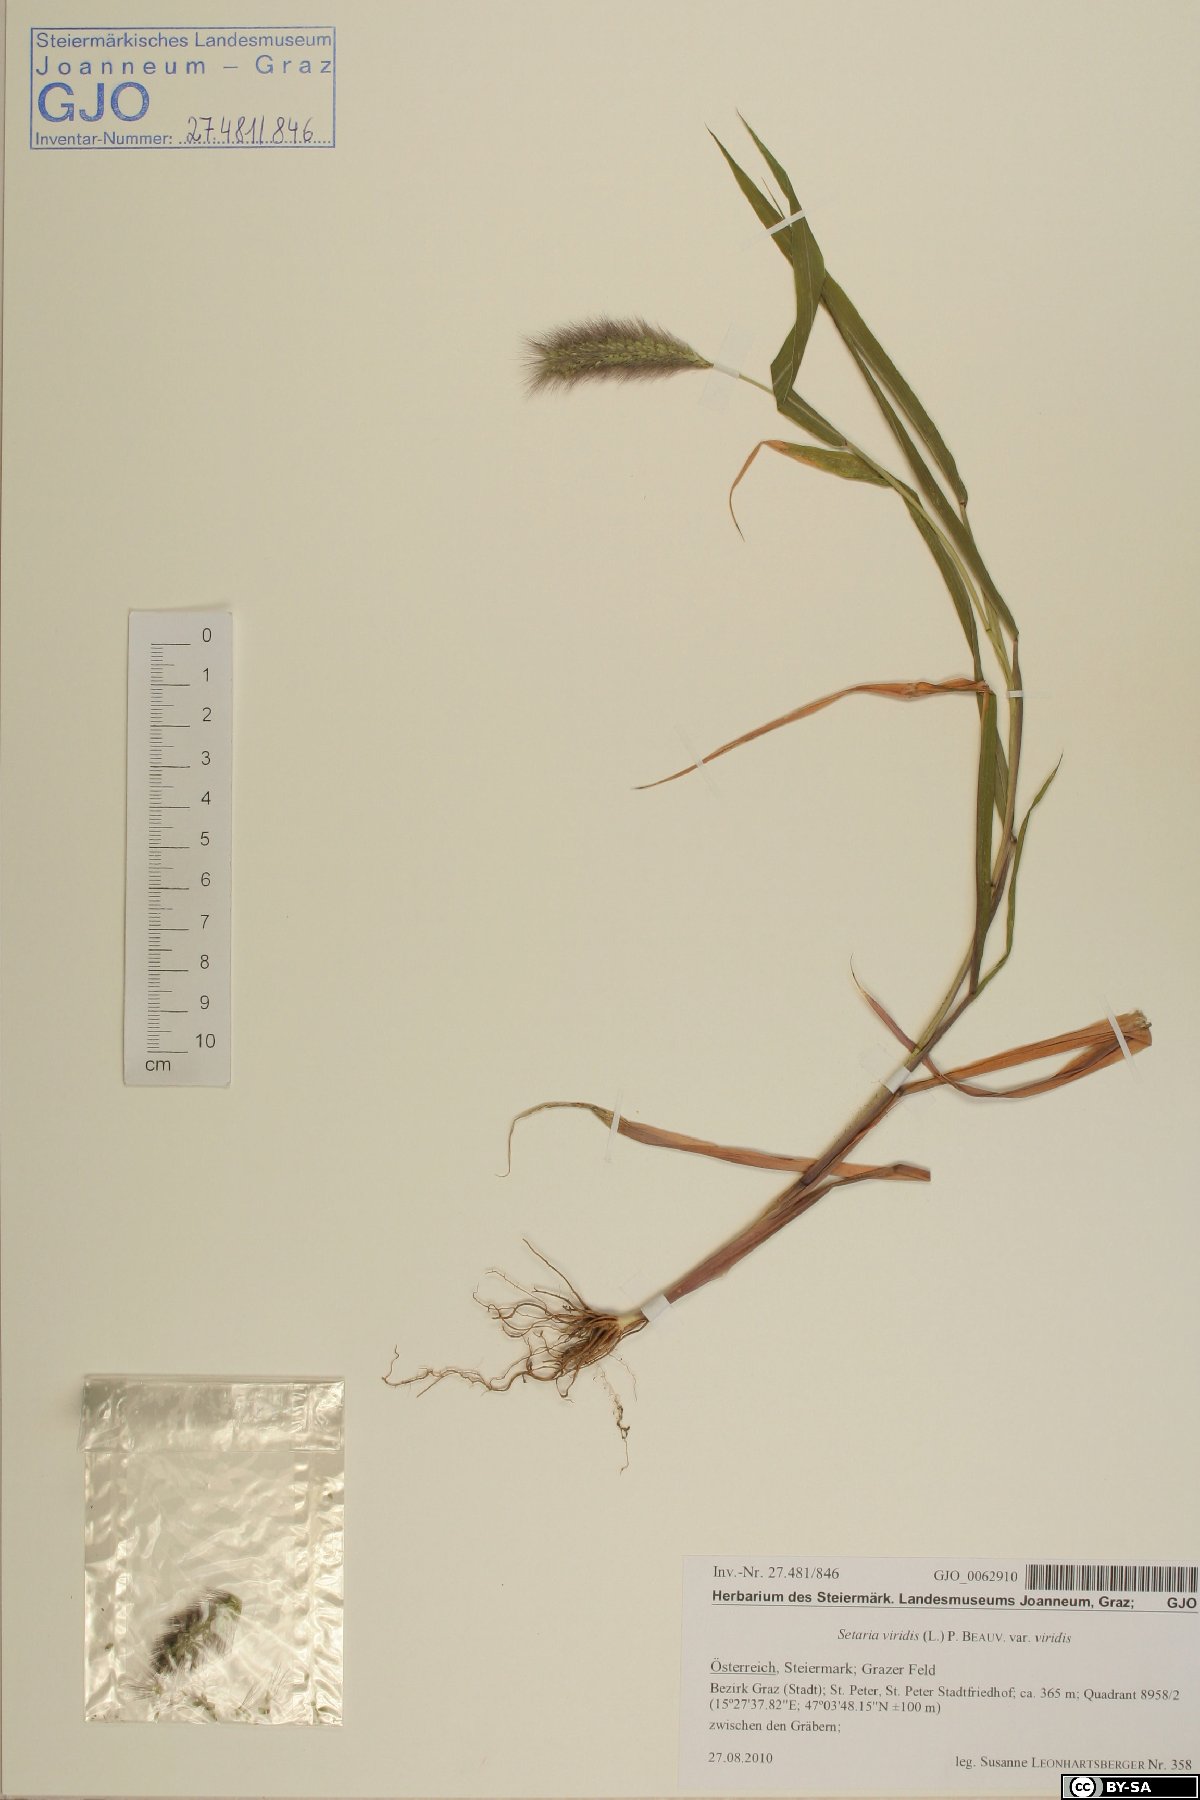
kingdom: Plantae
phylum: Tracheophyta
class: Liliopsida
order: Poales
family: Poaceae
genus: Setaria
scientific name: Setaria viridis
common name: Green bristlegrass
